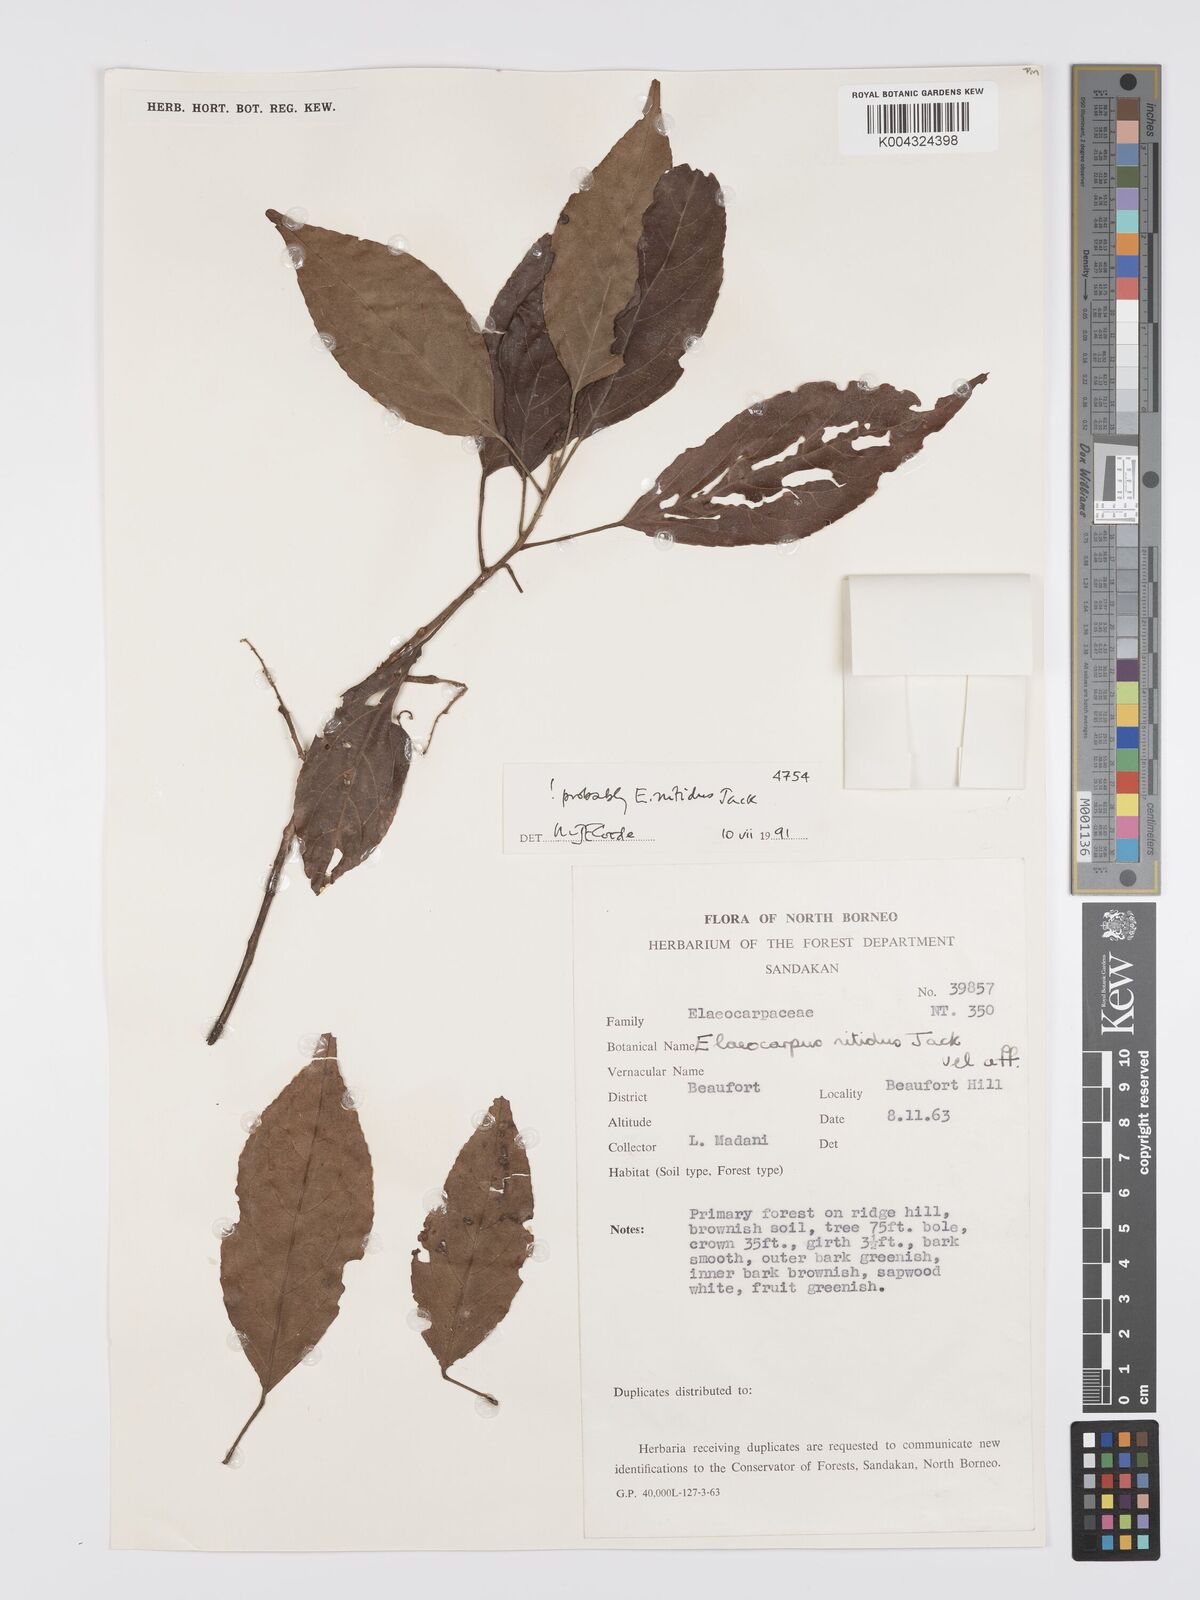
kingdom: Plantae
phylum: Tracheophyta
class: Magnoliopsida
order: Oxalidales
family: Elaeocarpaceae
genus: Elaeocarpus
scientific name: Elaeocarpus nitidus
